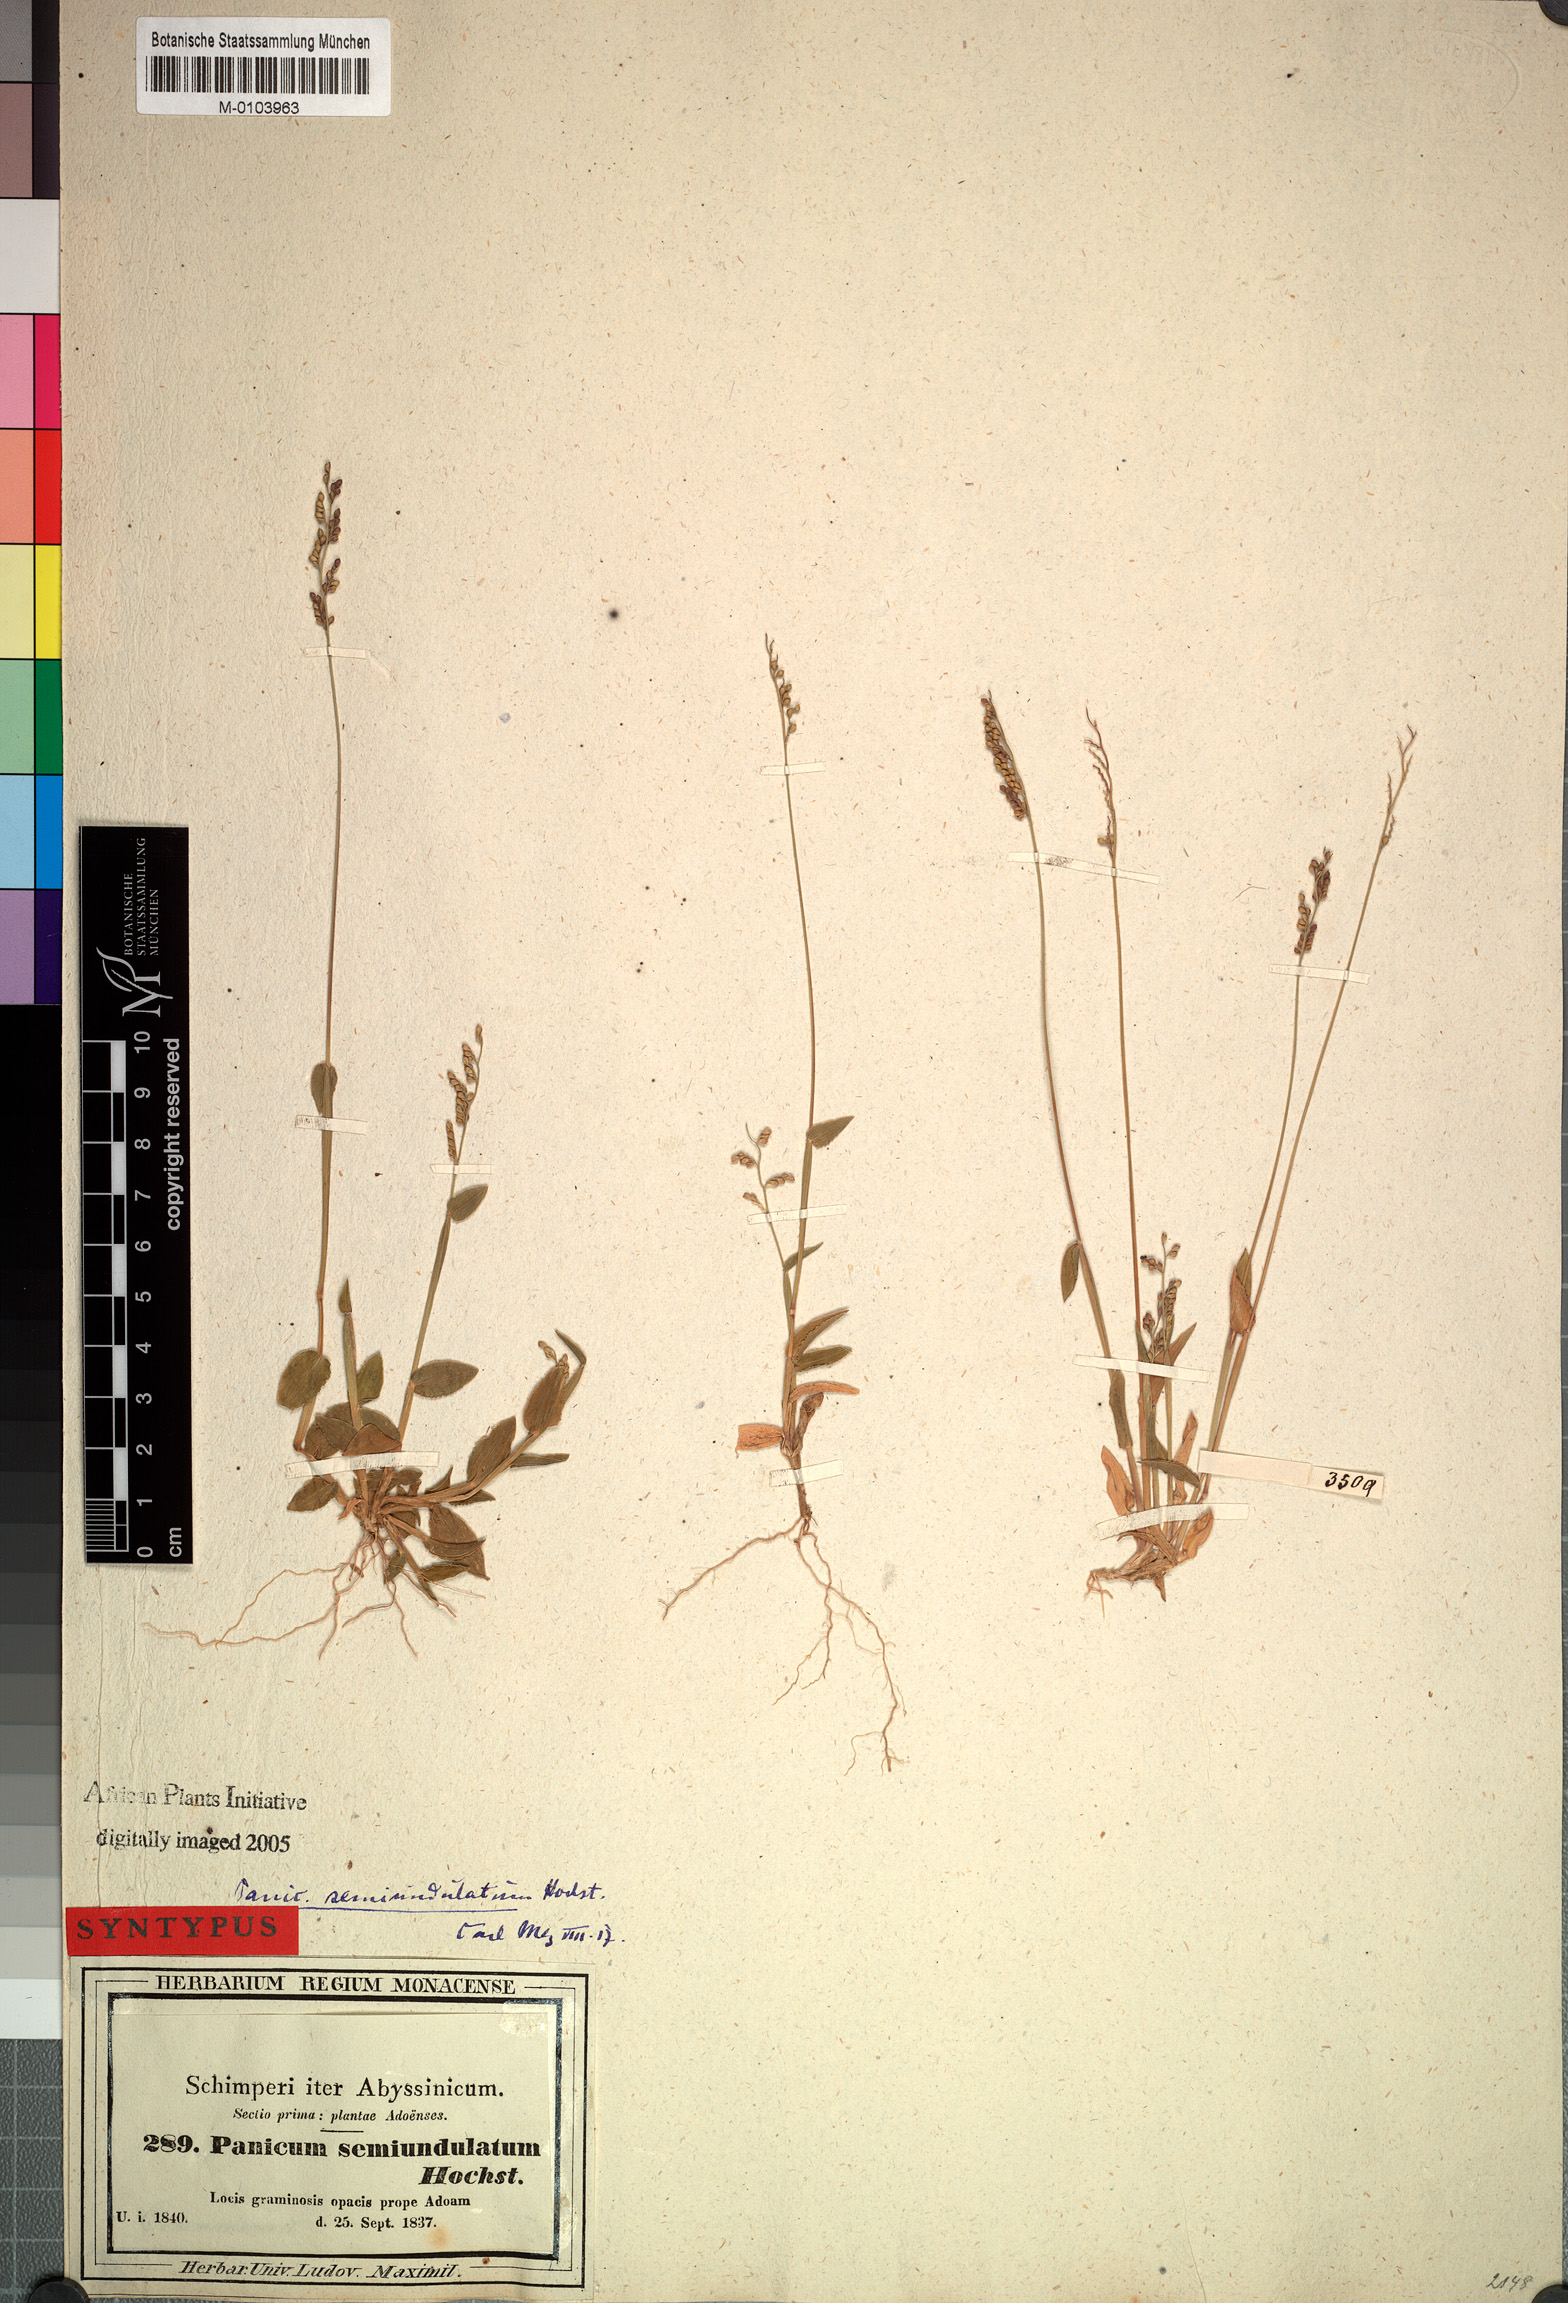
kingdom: Plantae
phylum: Tracheophyta
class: Liliopsida
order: Poales
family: Poaceae
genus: Urochloa
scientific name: Urochloa semiundulata
